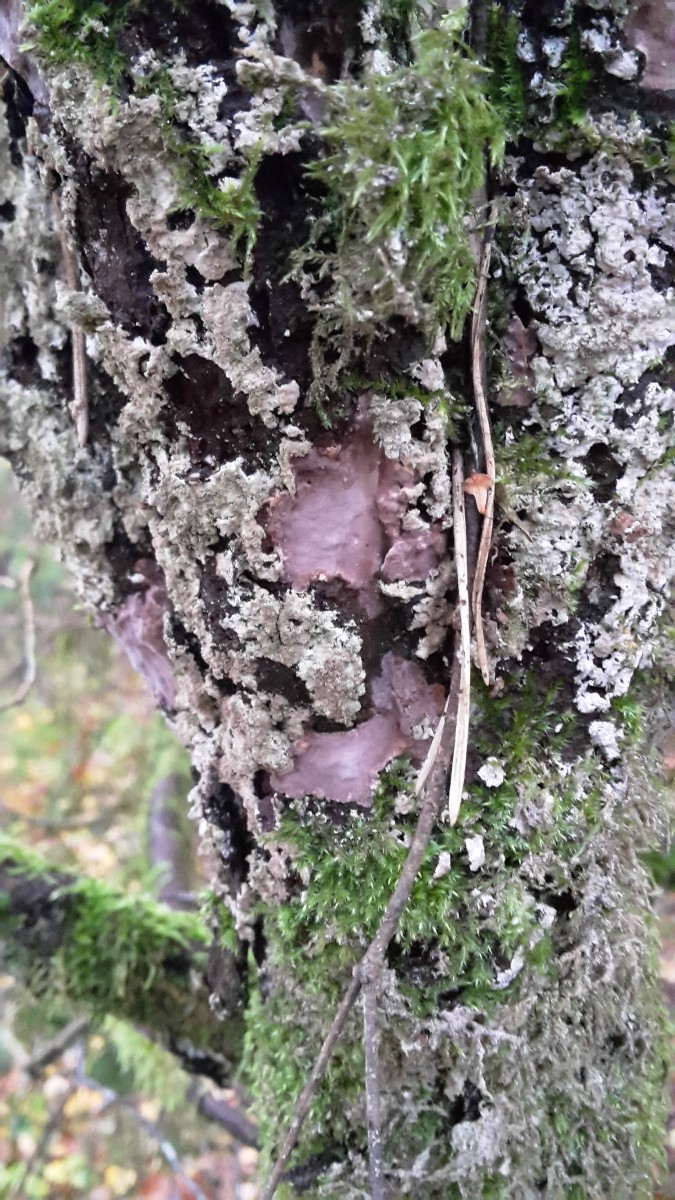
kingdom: Fungi
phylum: Basidiomycota
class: Agaricomycetes
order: Russulales
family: Echinodontiaceae
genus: Amylostereum
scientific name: Amylostereum laevigatum
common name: ene-lædersvamp
